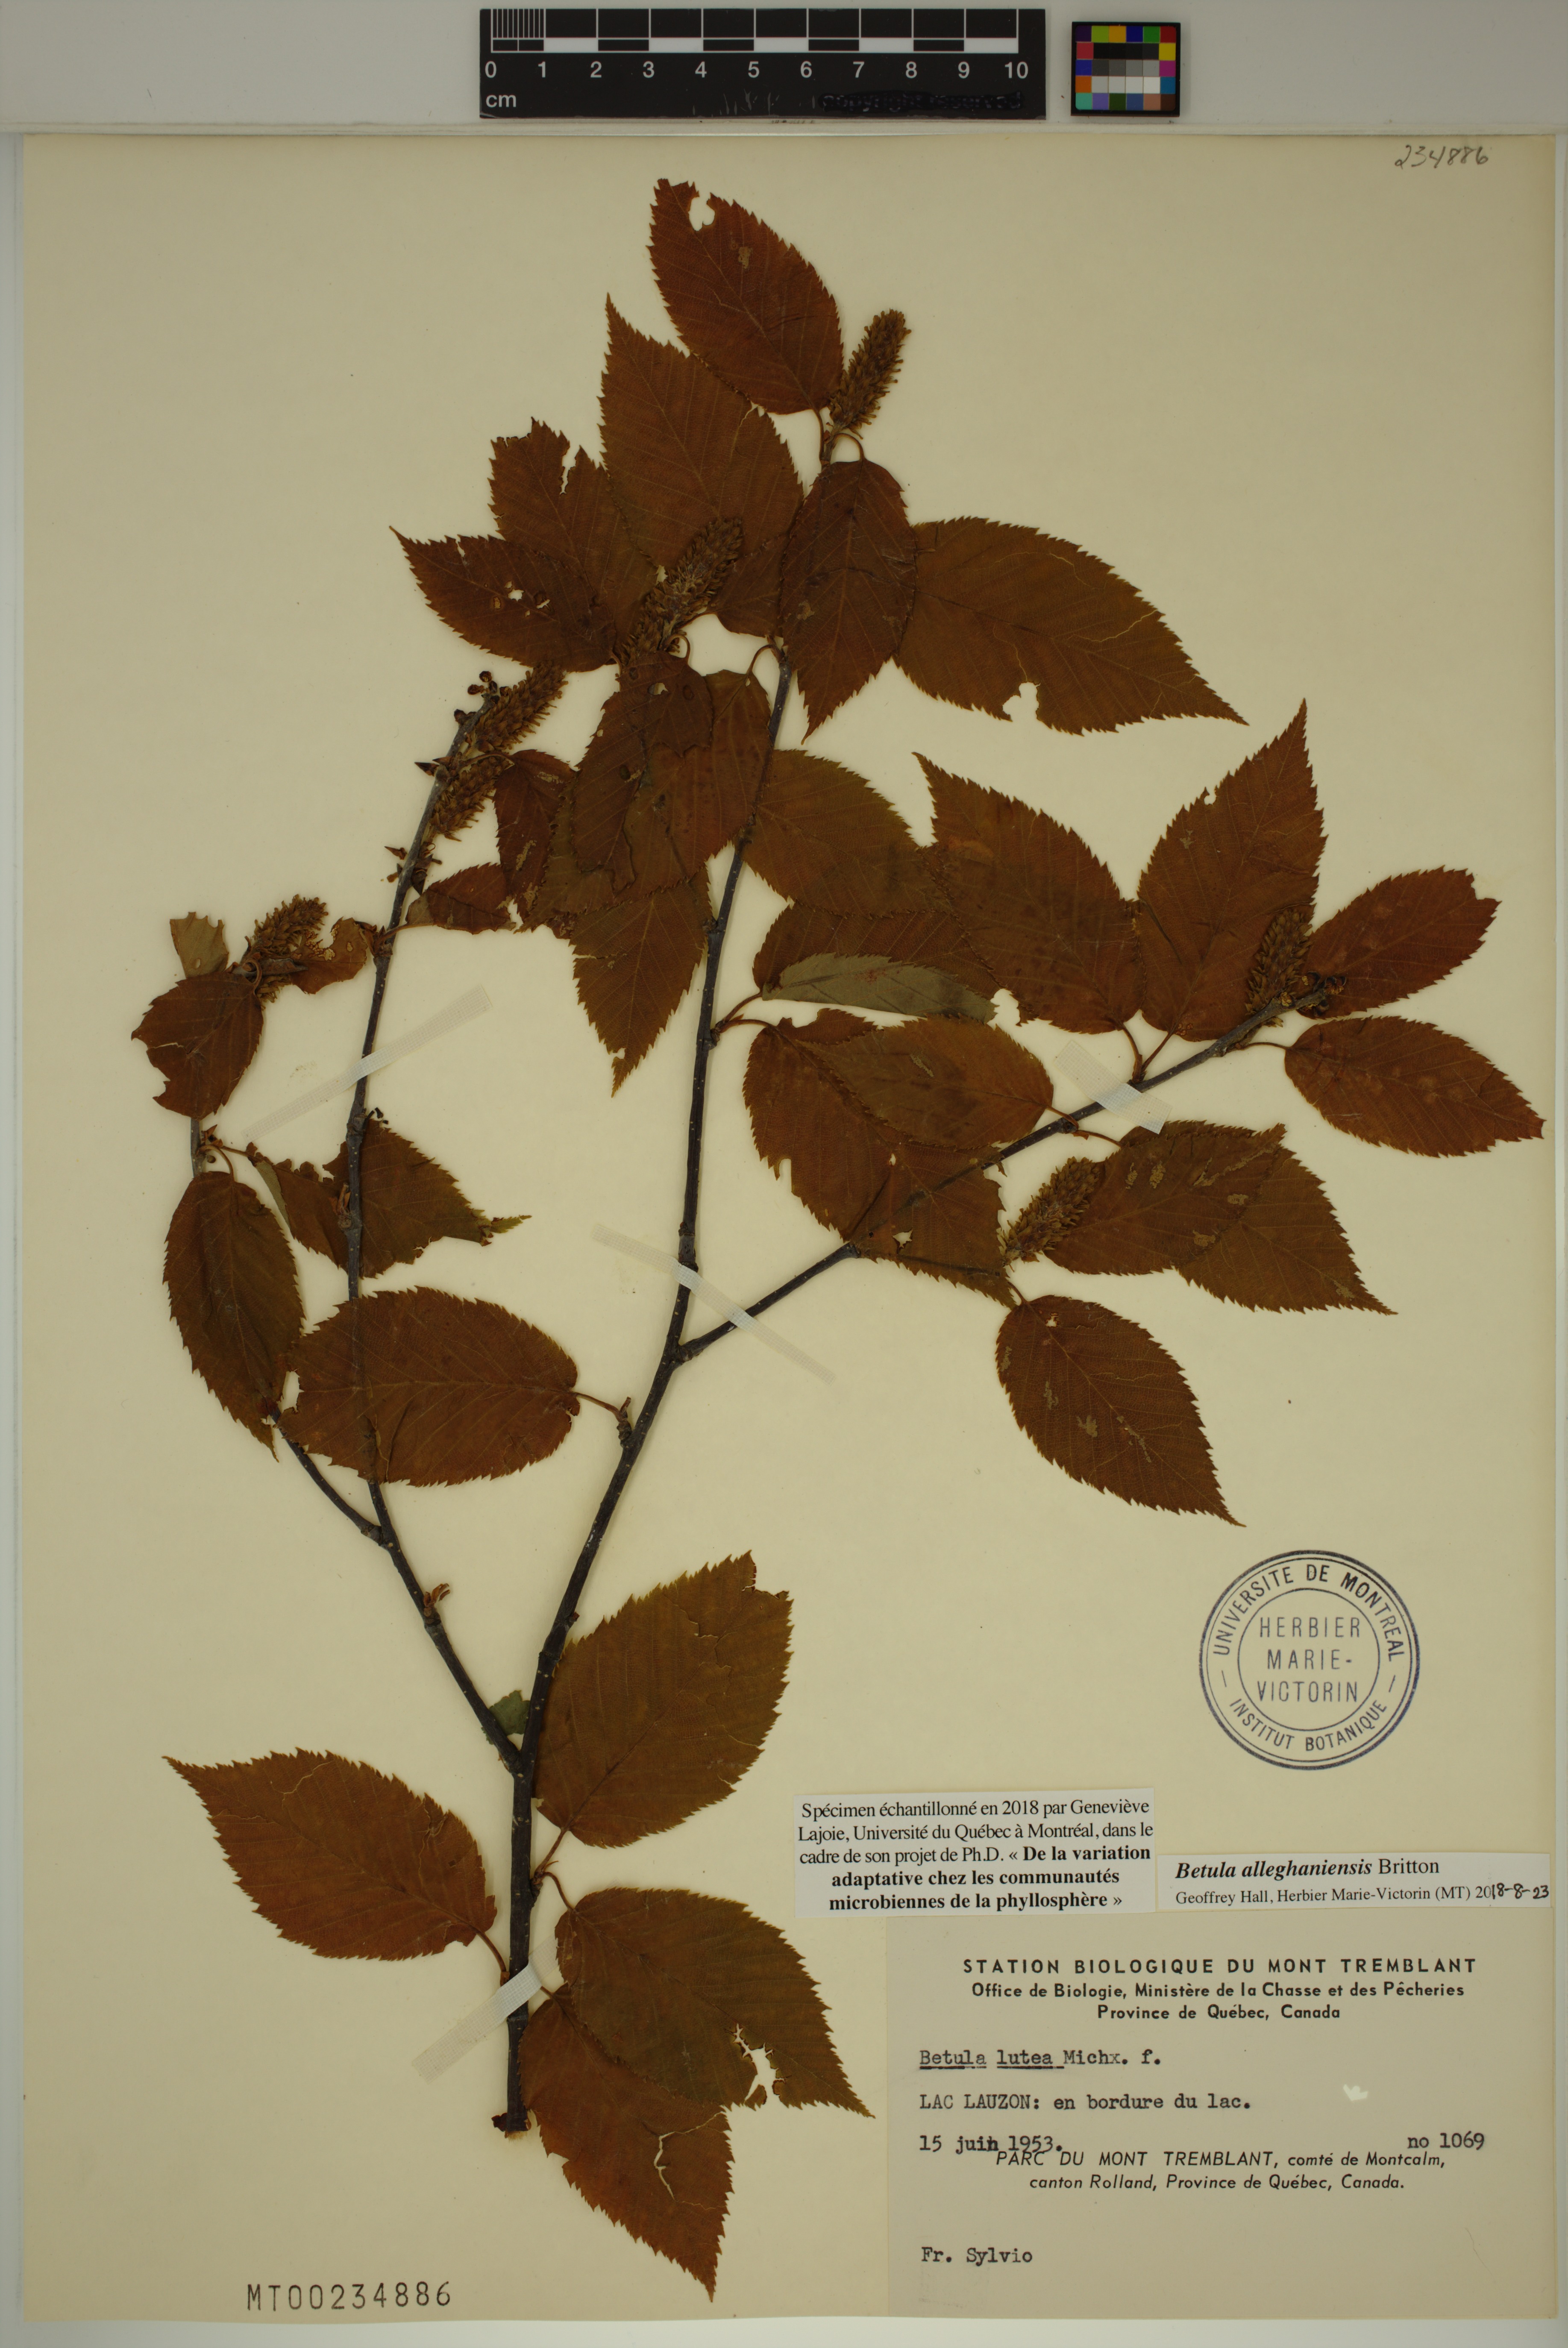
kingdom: Plantae
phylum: Tracheophyta
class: Magnoliopsida
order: Fagales
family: Betulaceae
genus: Betula
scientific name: Betula alleghaniensis
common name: Yellow birch
